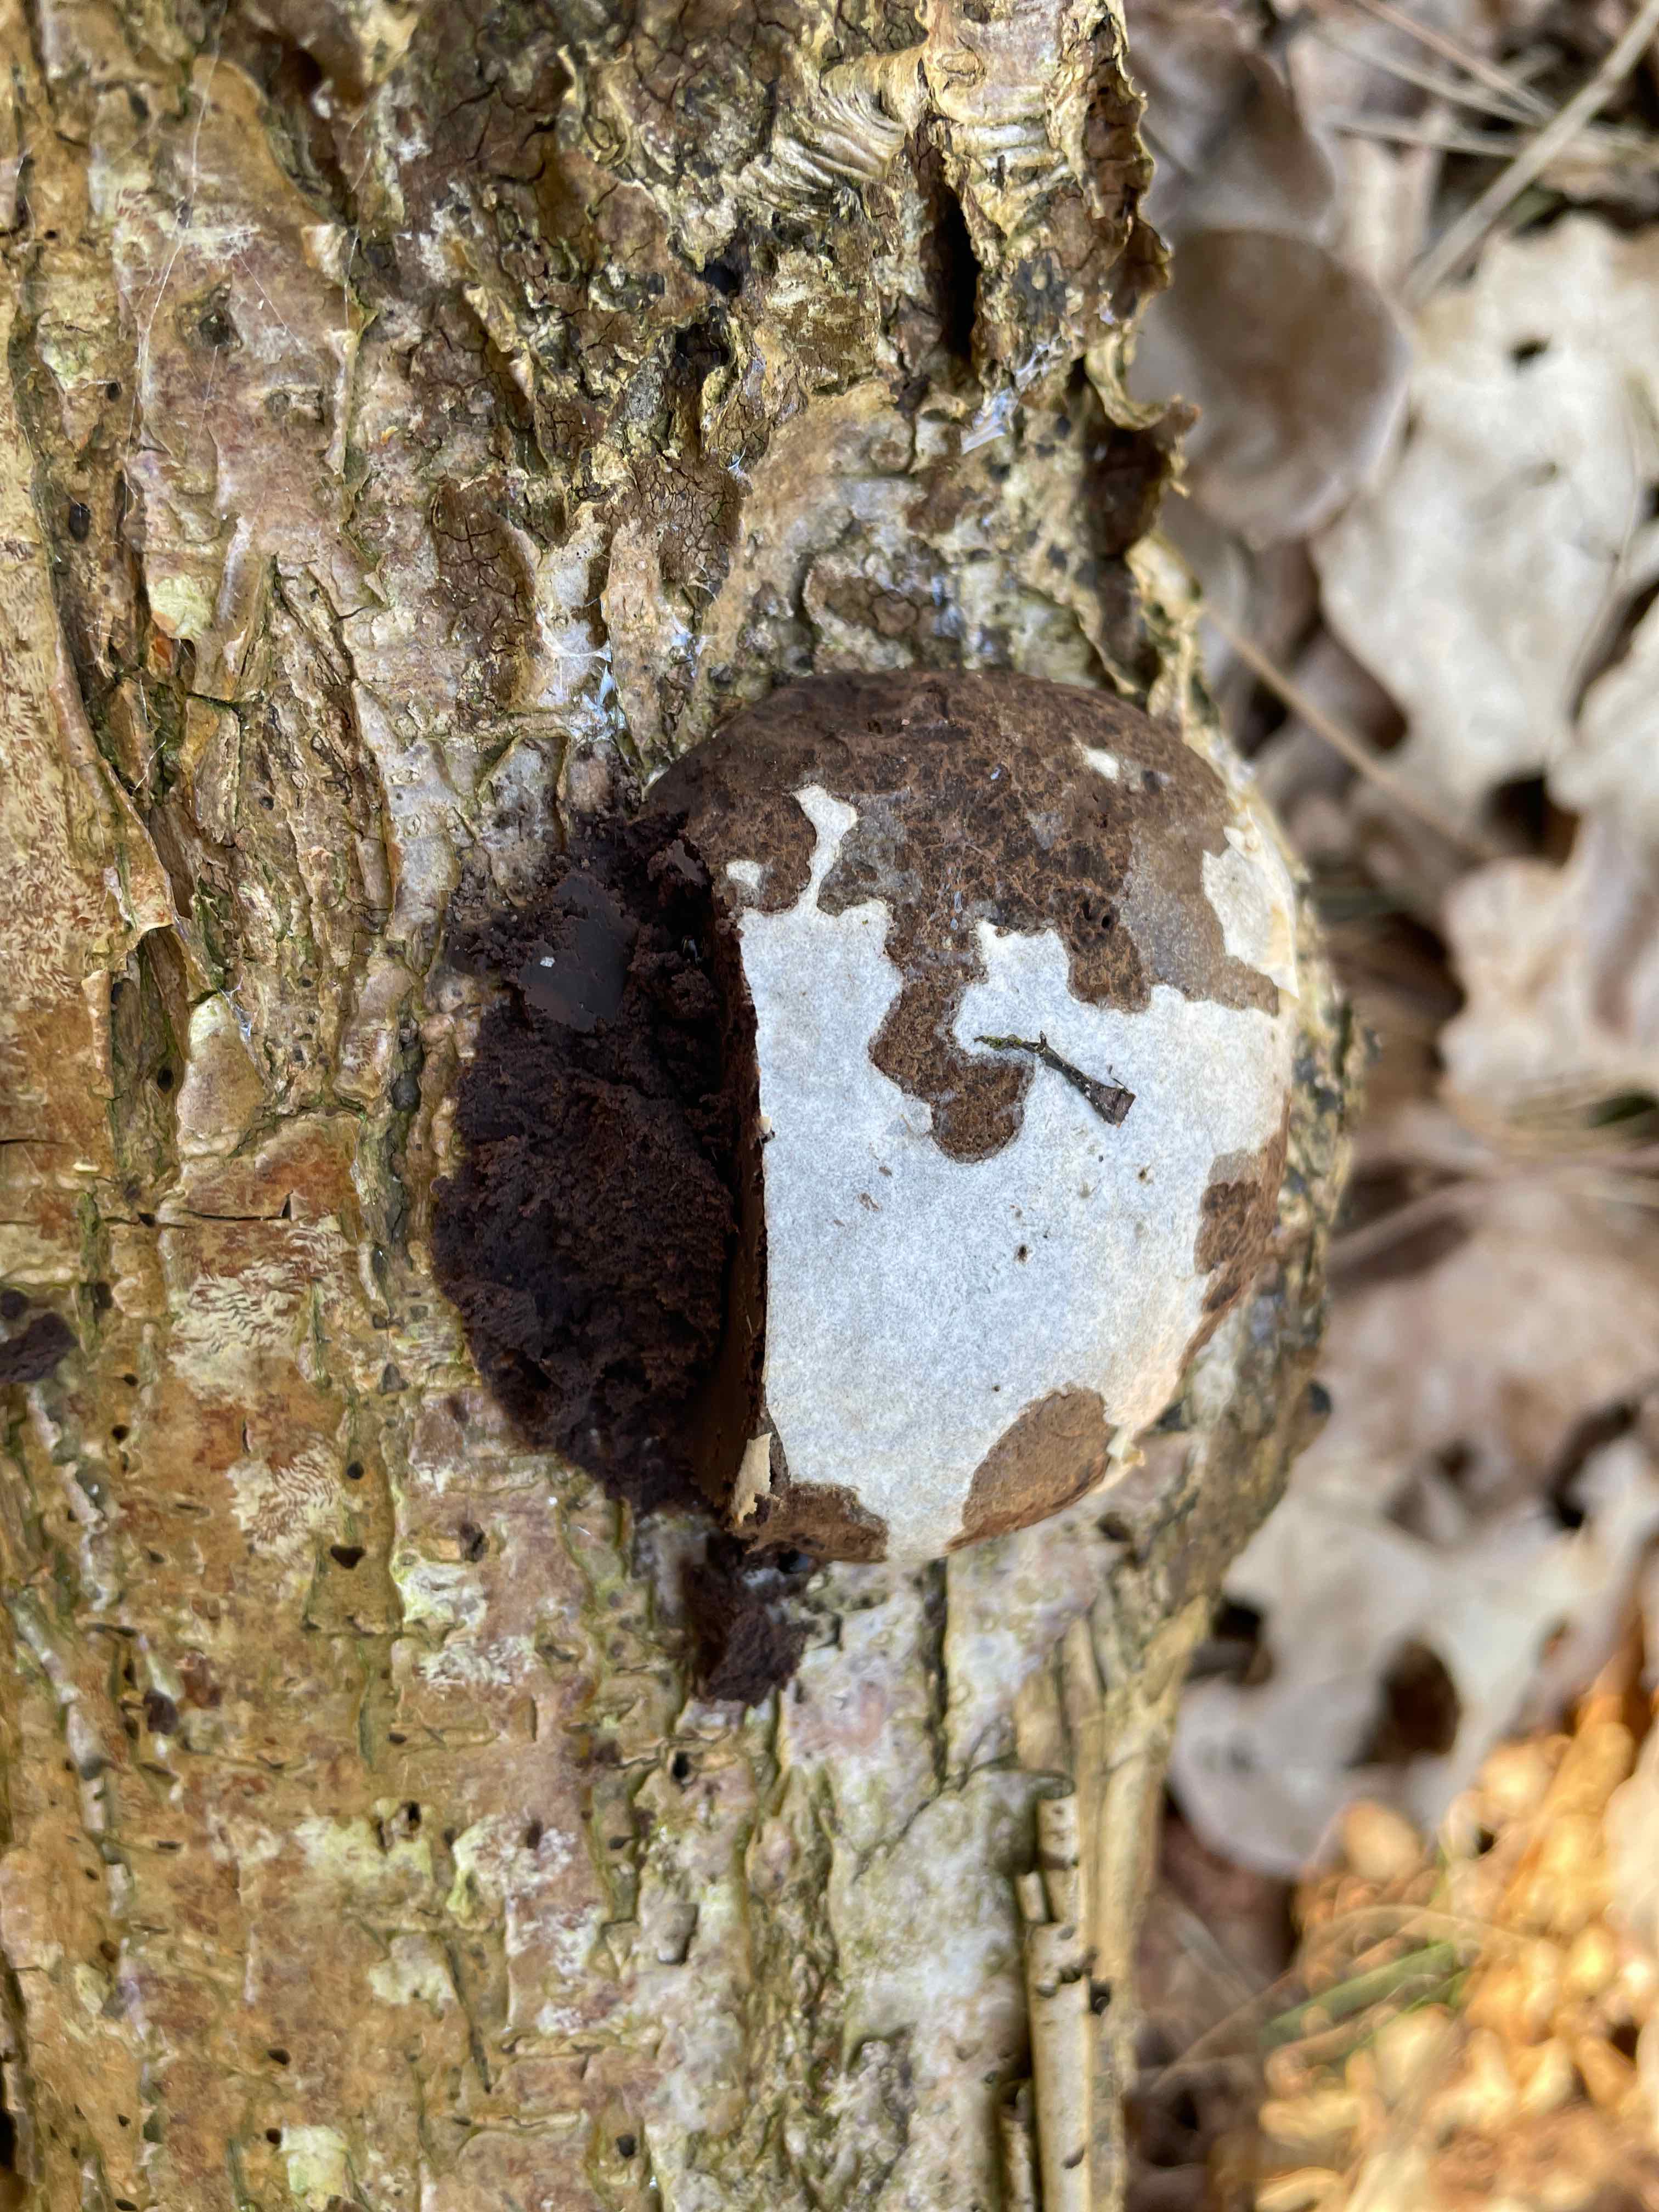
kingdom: Protozoa
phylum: Mycetozoa
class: Myxomycetes
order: Cribrariales
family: Tubiferaceae
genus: Reticularia
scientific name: Reticularia lycoperdon
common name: skinnende støvpude
